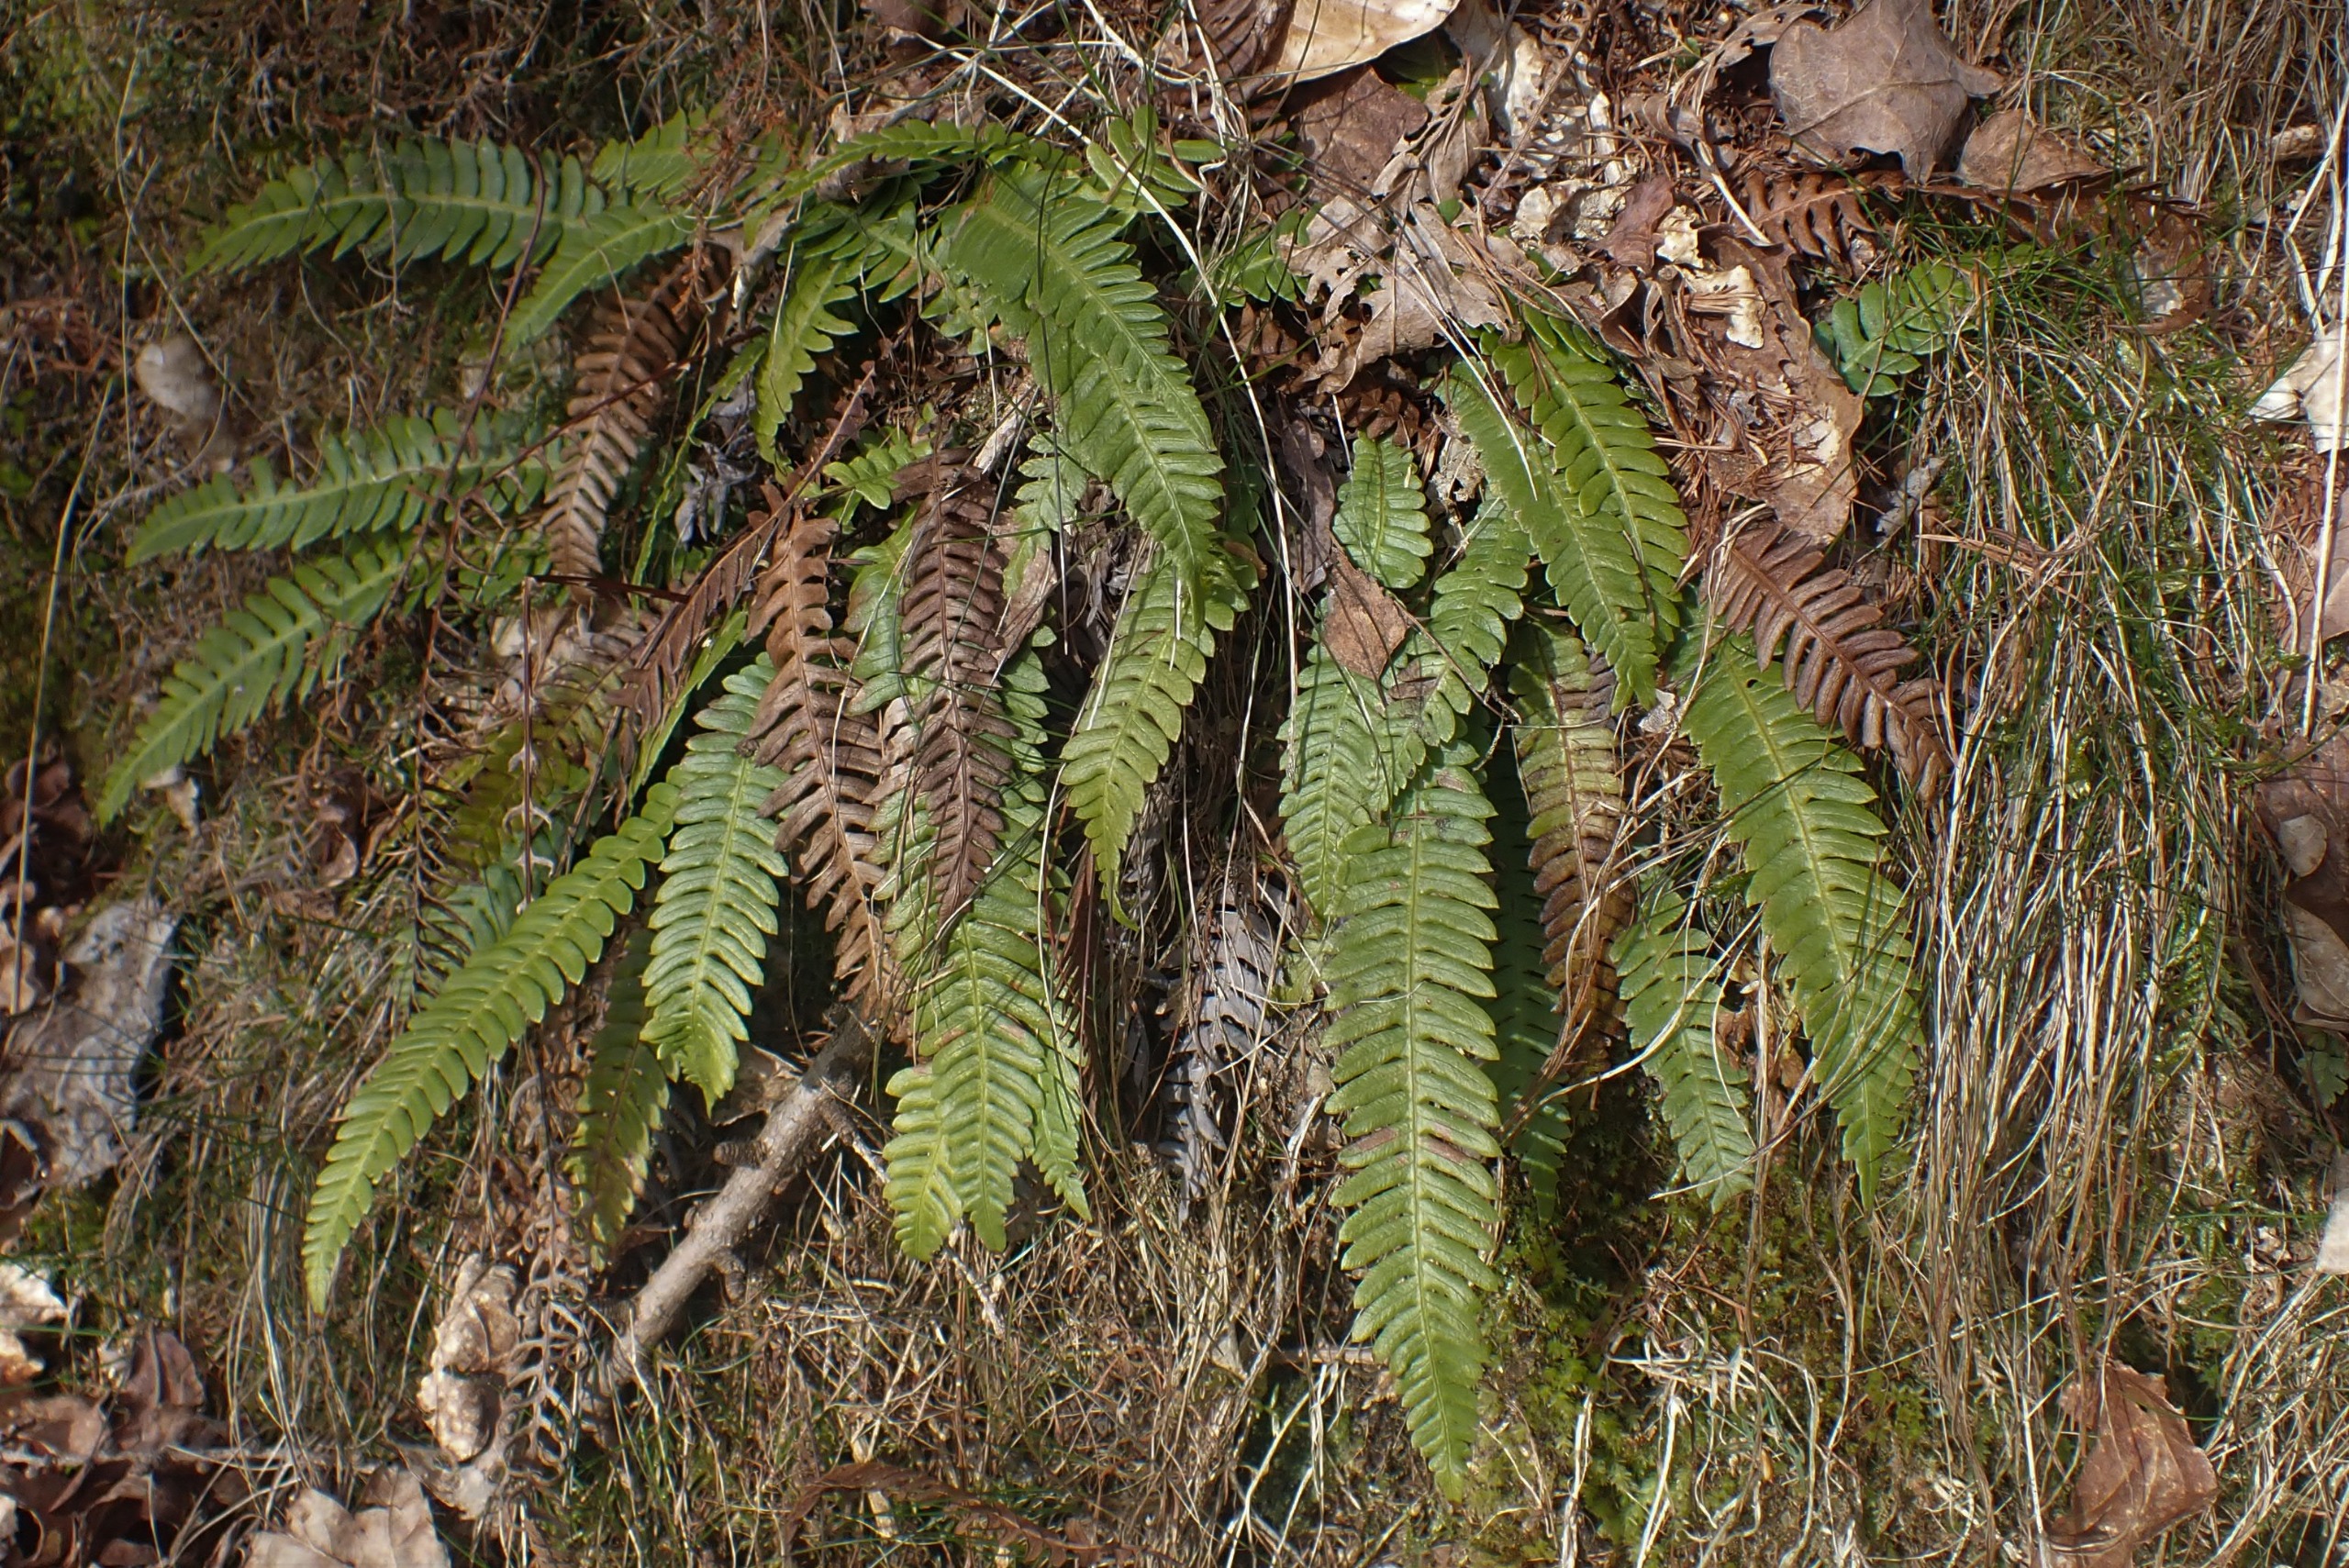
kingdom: Plantae
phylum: Tracheophyta
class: Polypodiopsida
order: Polypodiales
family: Blechnaceae
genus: Struthiopteris
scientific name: Struthiopteris spicant
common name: Kambregne
